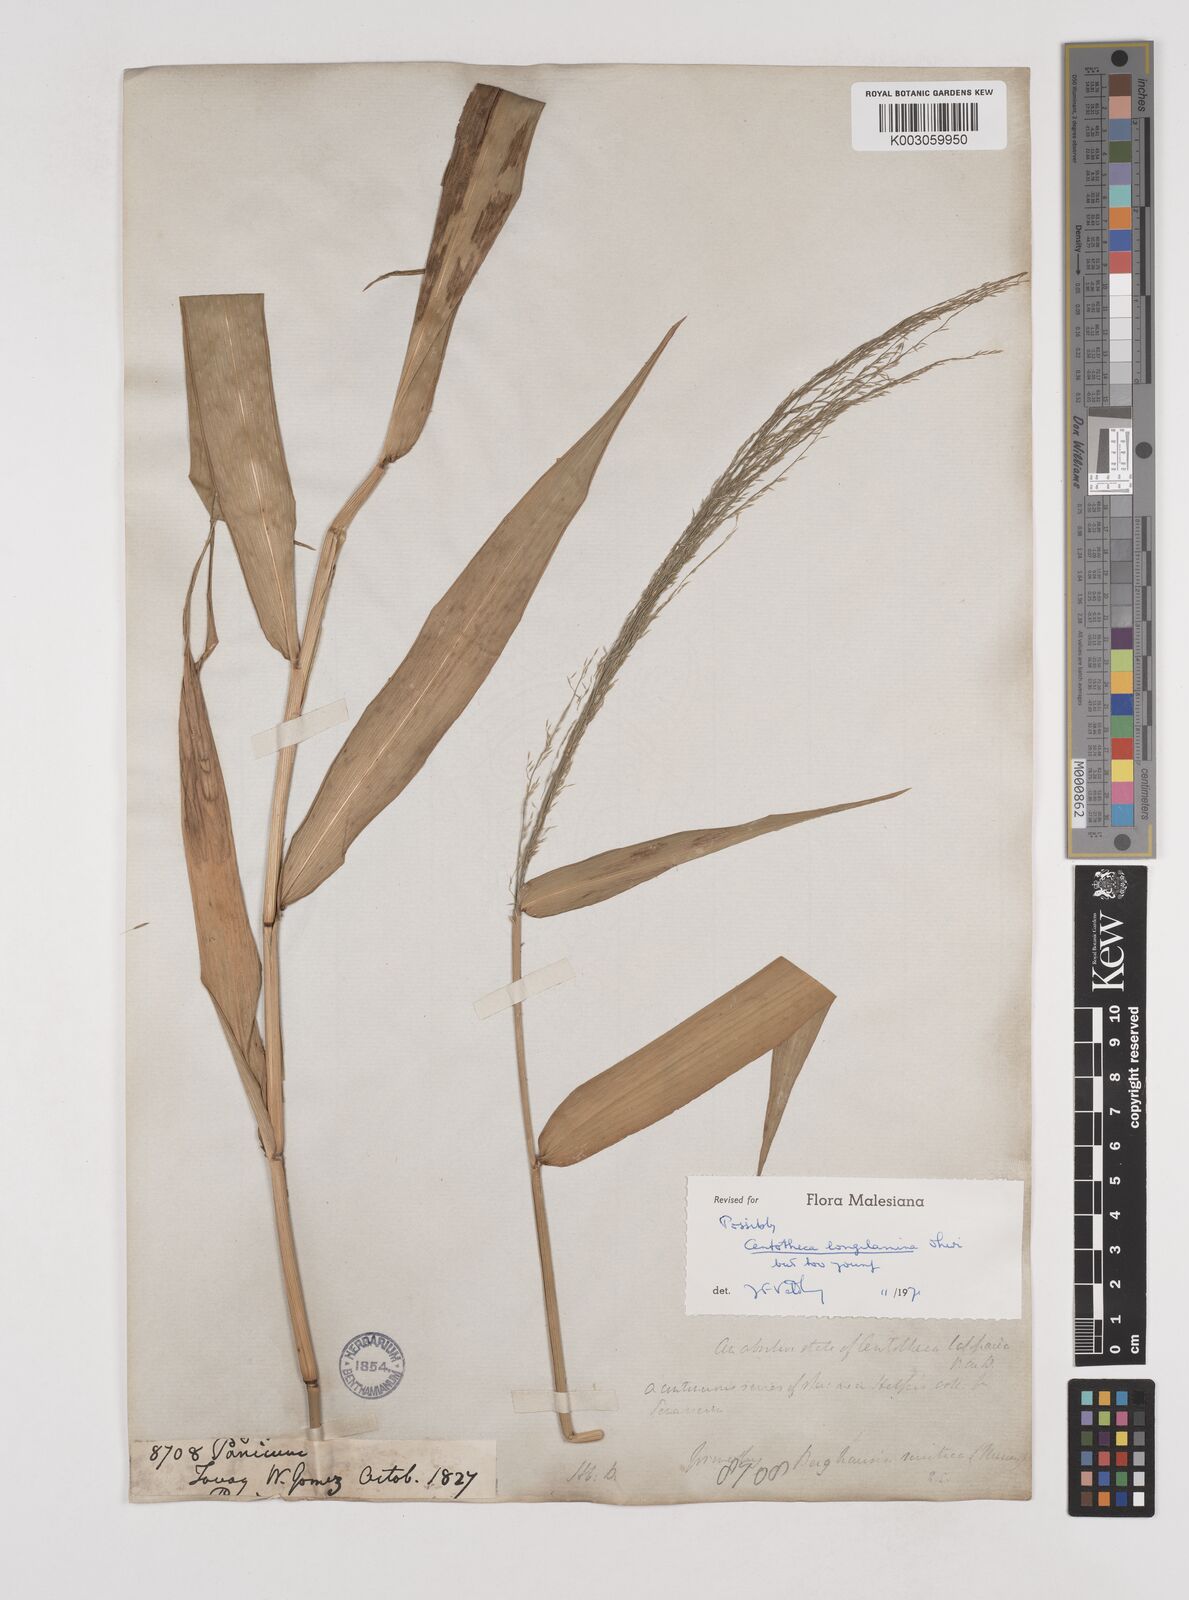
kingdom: Plantae
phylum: Tracheophyta
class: Liliopsida
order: Poales
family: Poaceae
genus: Centotheca
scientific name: Centotheca lappacea
